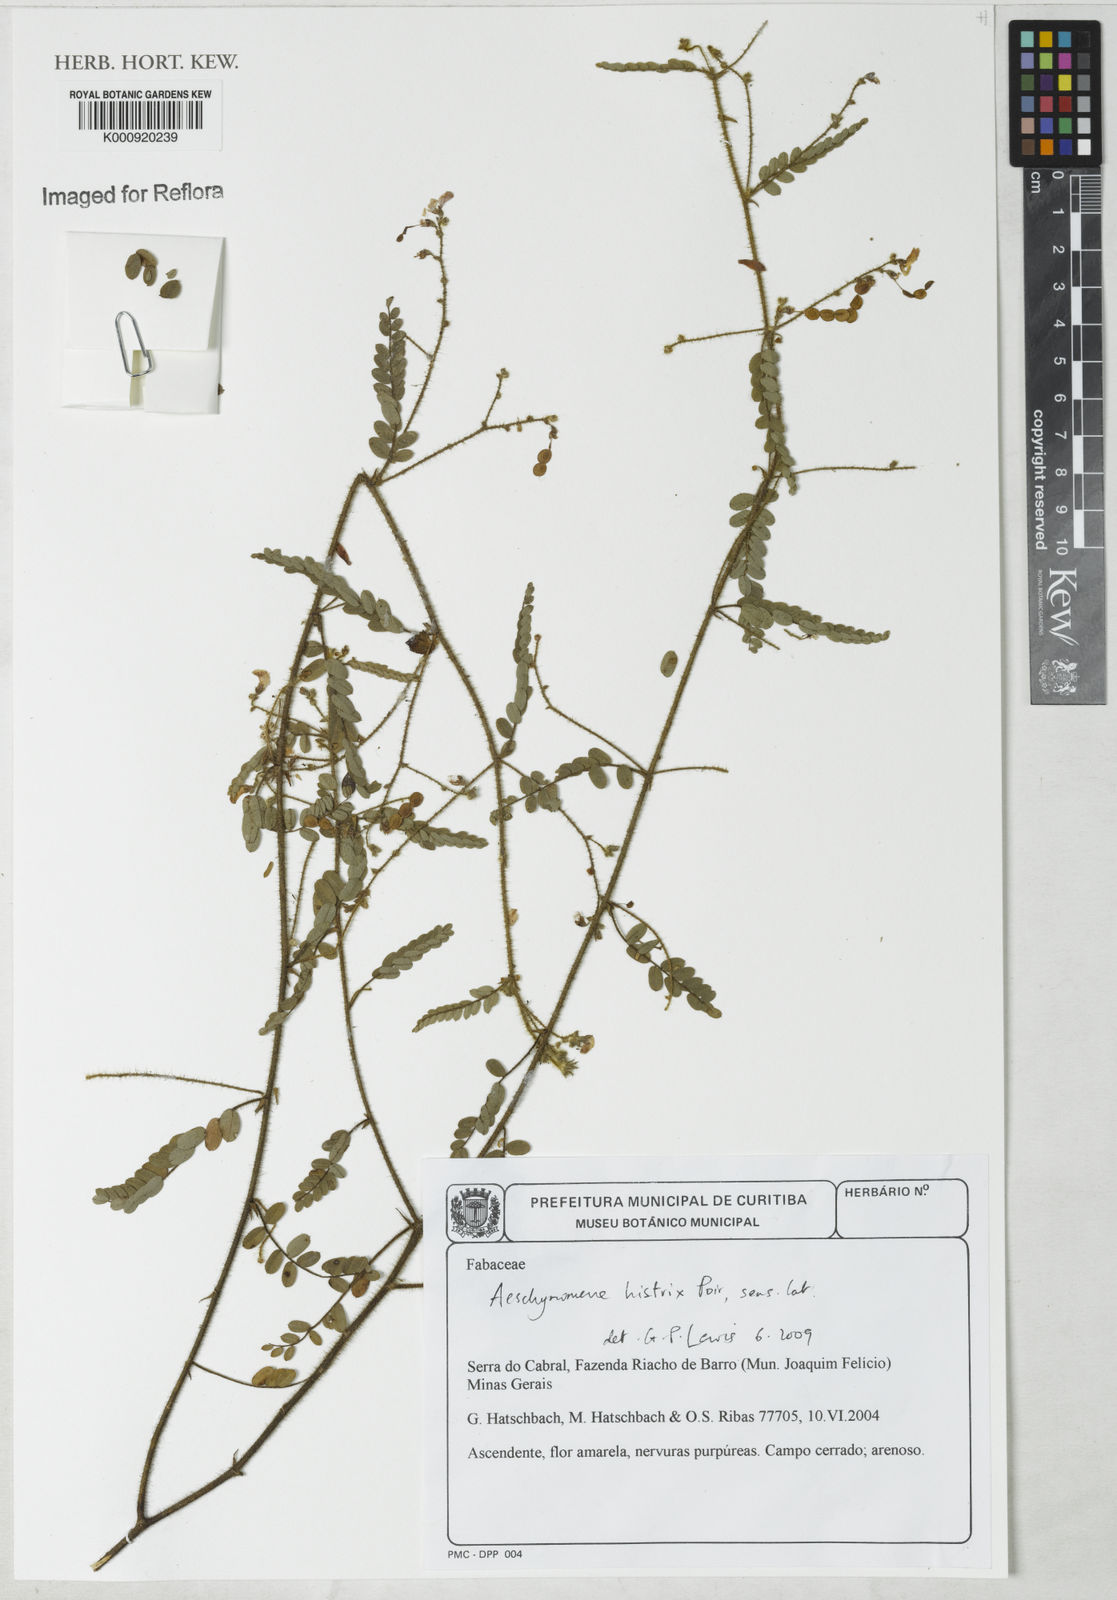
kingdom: Plantae
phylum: Tracheophyta
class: Magnoliopsida
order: Fabales
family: Fabaceae
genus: Ctenodon
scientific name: Ctenodon histrix
